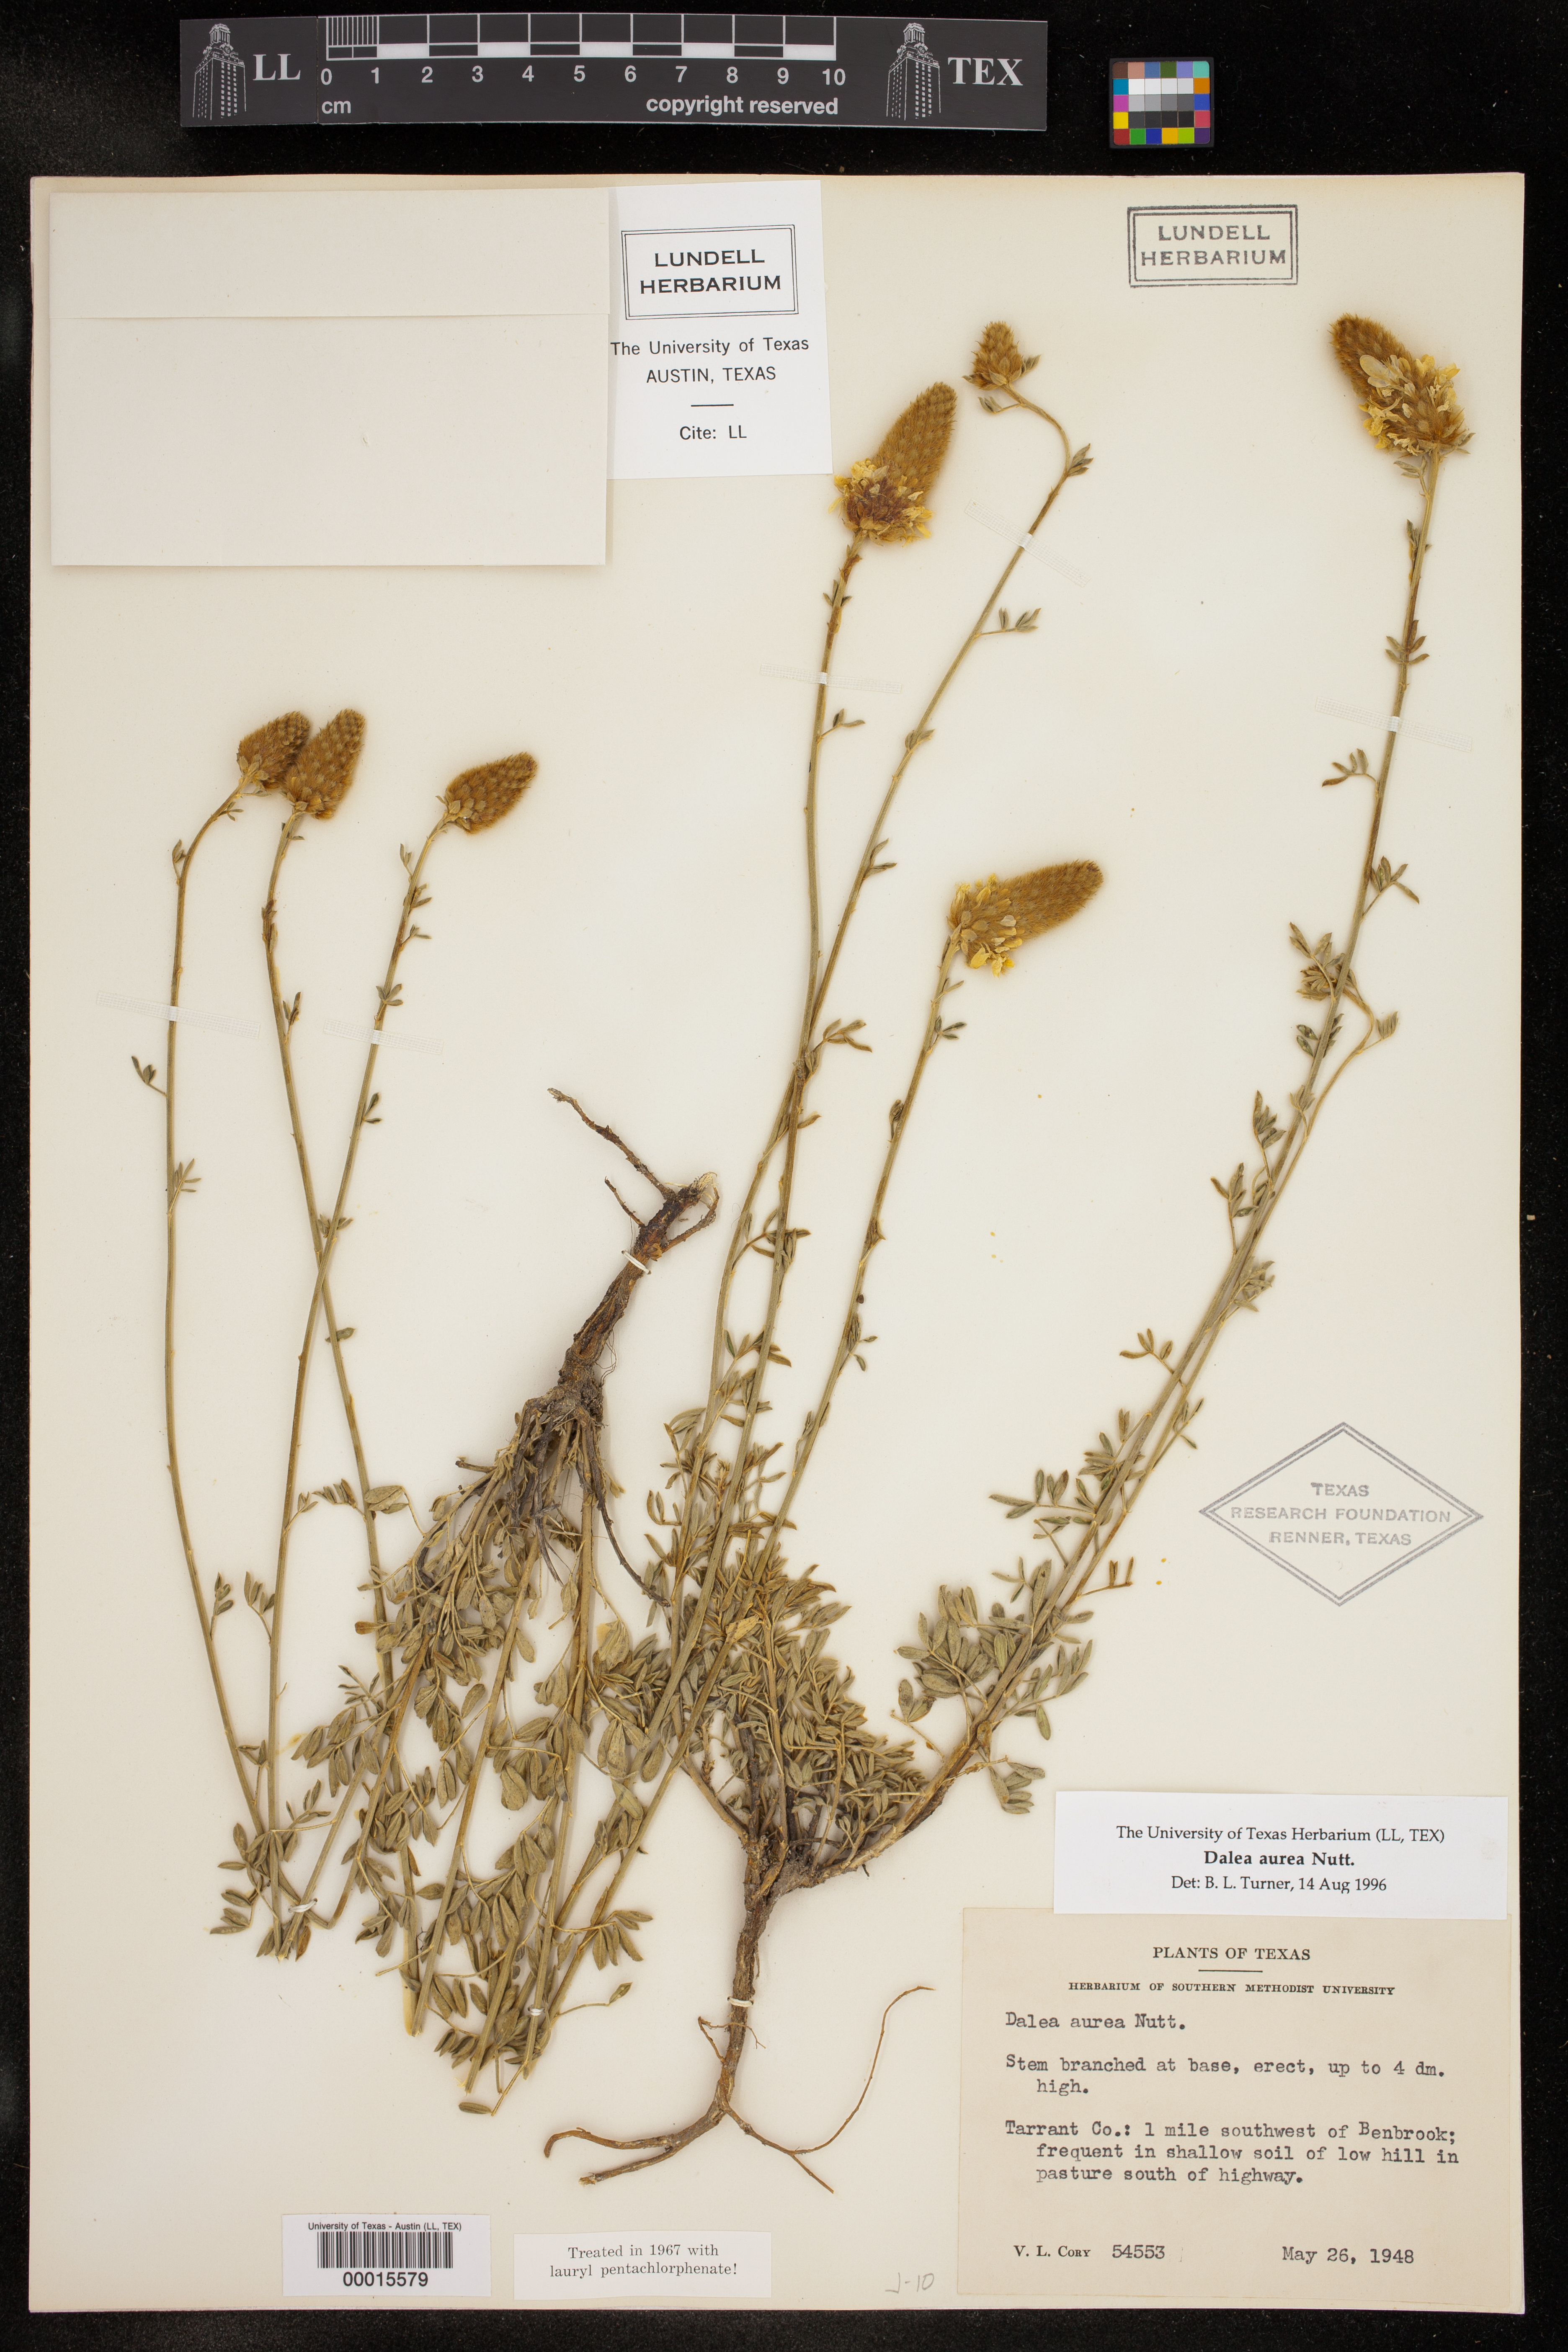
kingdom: Plantae
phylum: Tracheophyta
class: Magnoliopsida
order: Fabales
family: Fabaceae
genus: Dalea
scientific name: Dalea aurea
